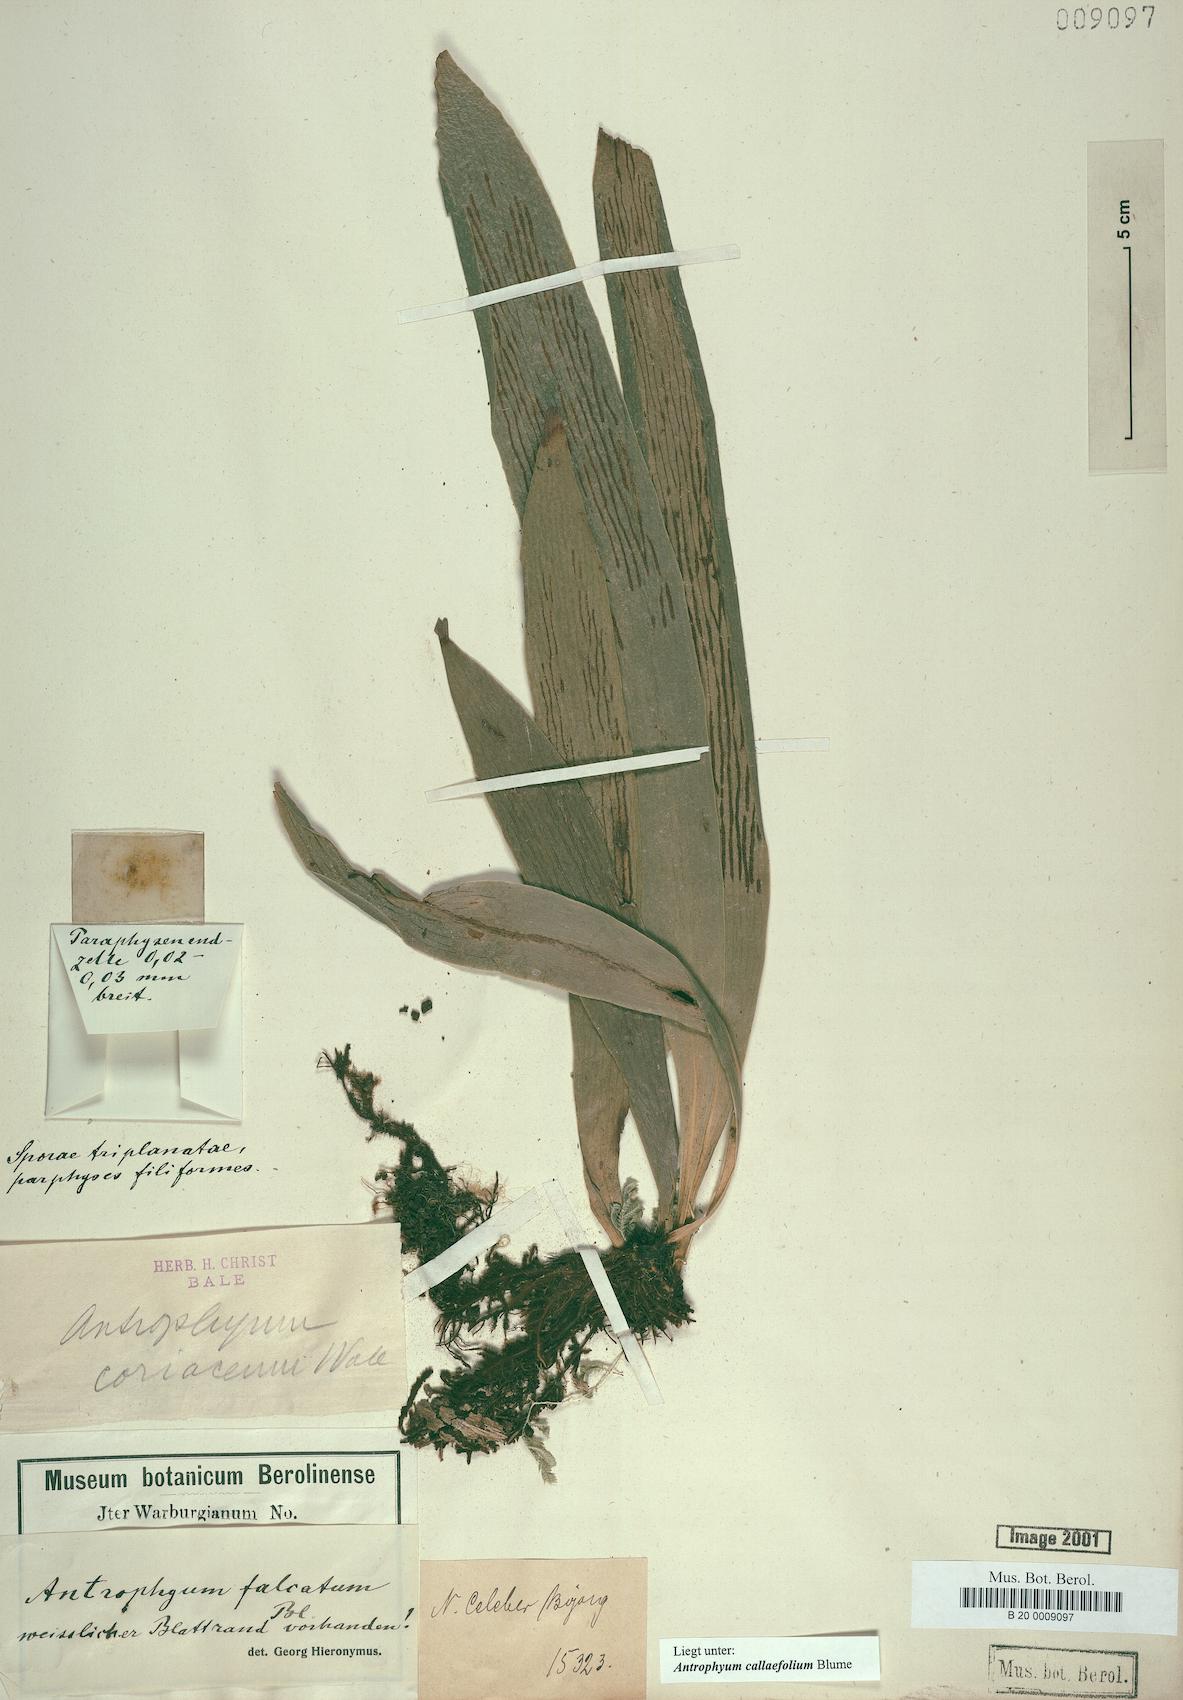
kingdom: Plantae
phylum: Tracheophyta
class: Polypodiopsida
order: Polypodiales
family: Pteridaceae
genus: Antrophyum
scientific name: Antrophyum callifolium
